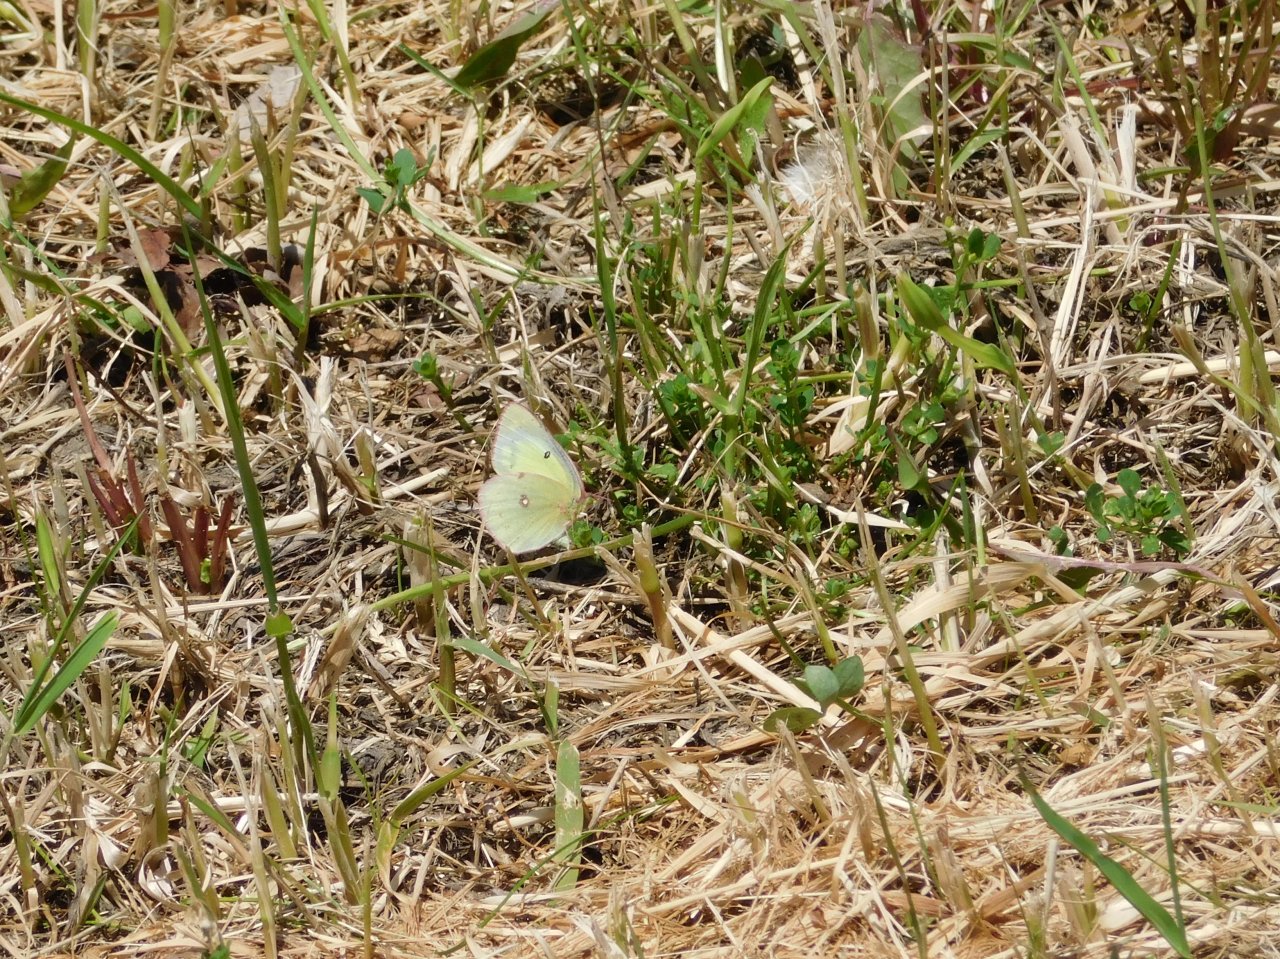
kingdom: Animalia
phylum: Arthropoda
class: Insecta
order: Lepidoptera
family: Pieridae
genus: Colias
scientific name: Colias philodice
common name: Clouded Sulphur
